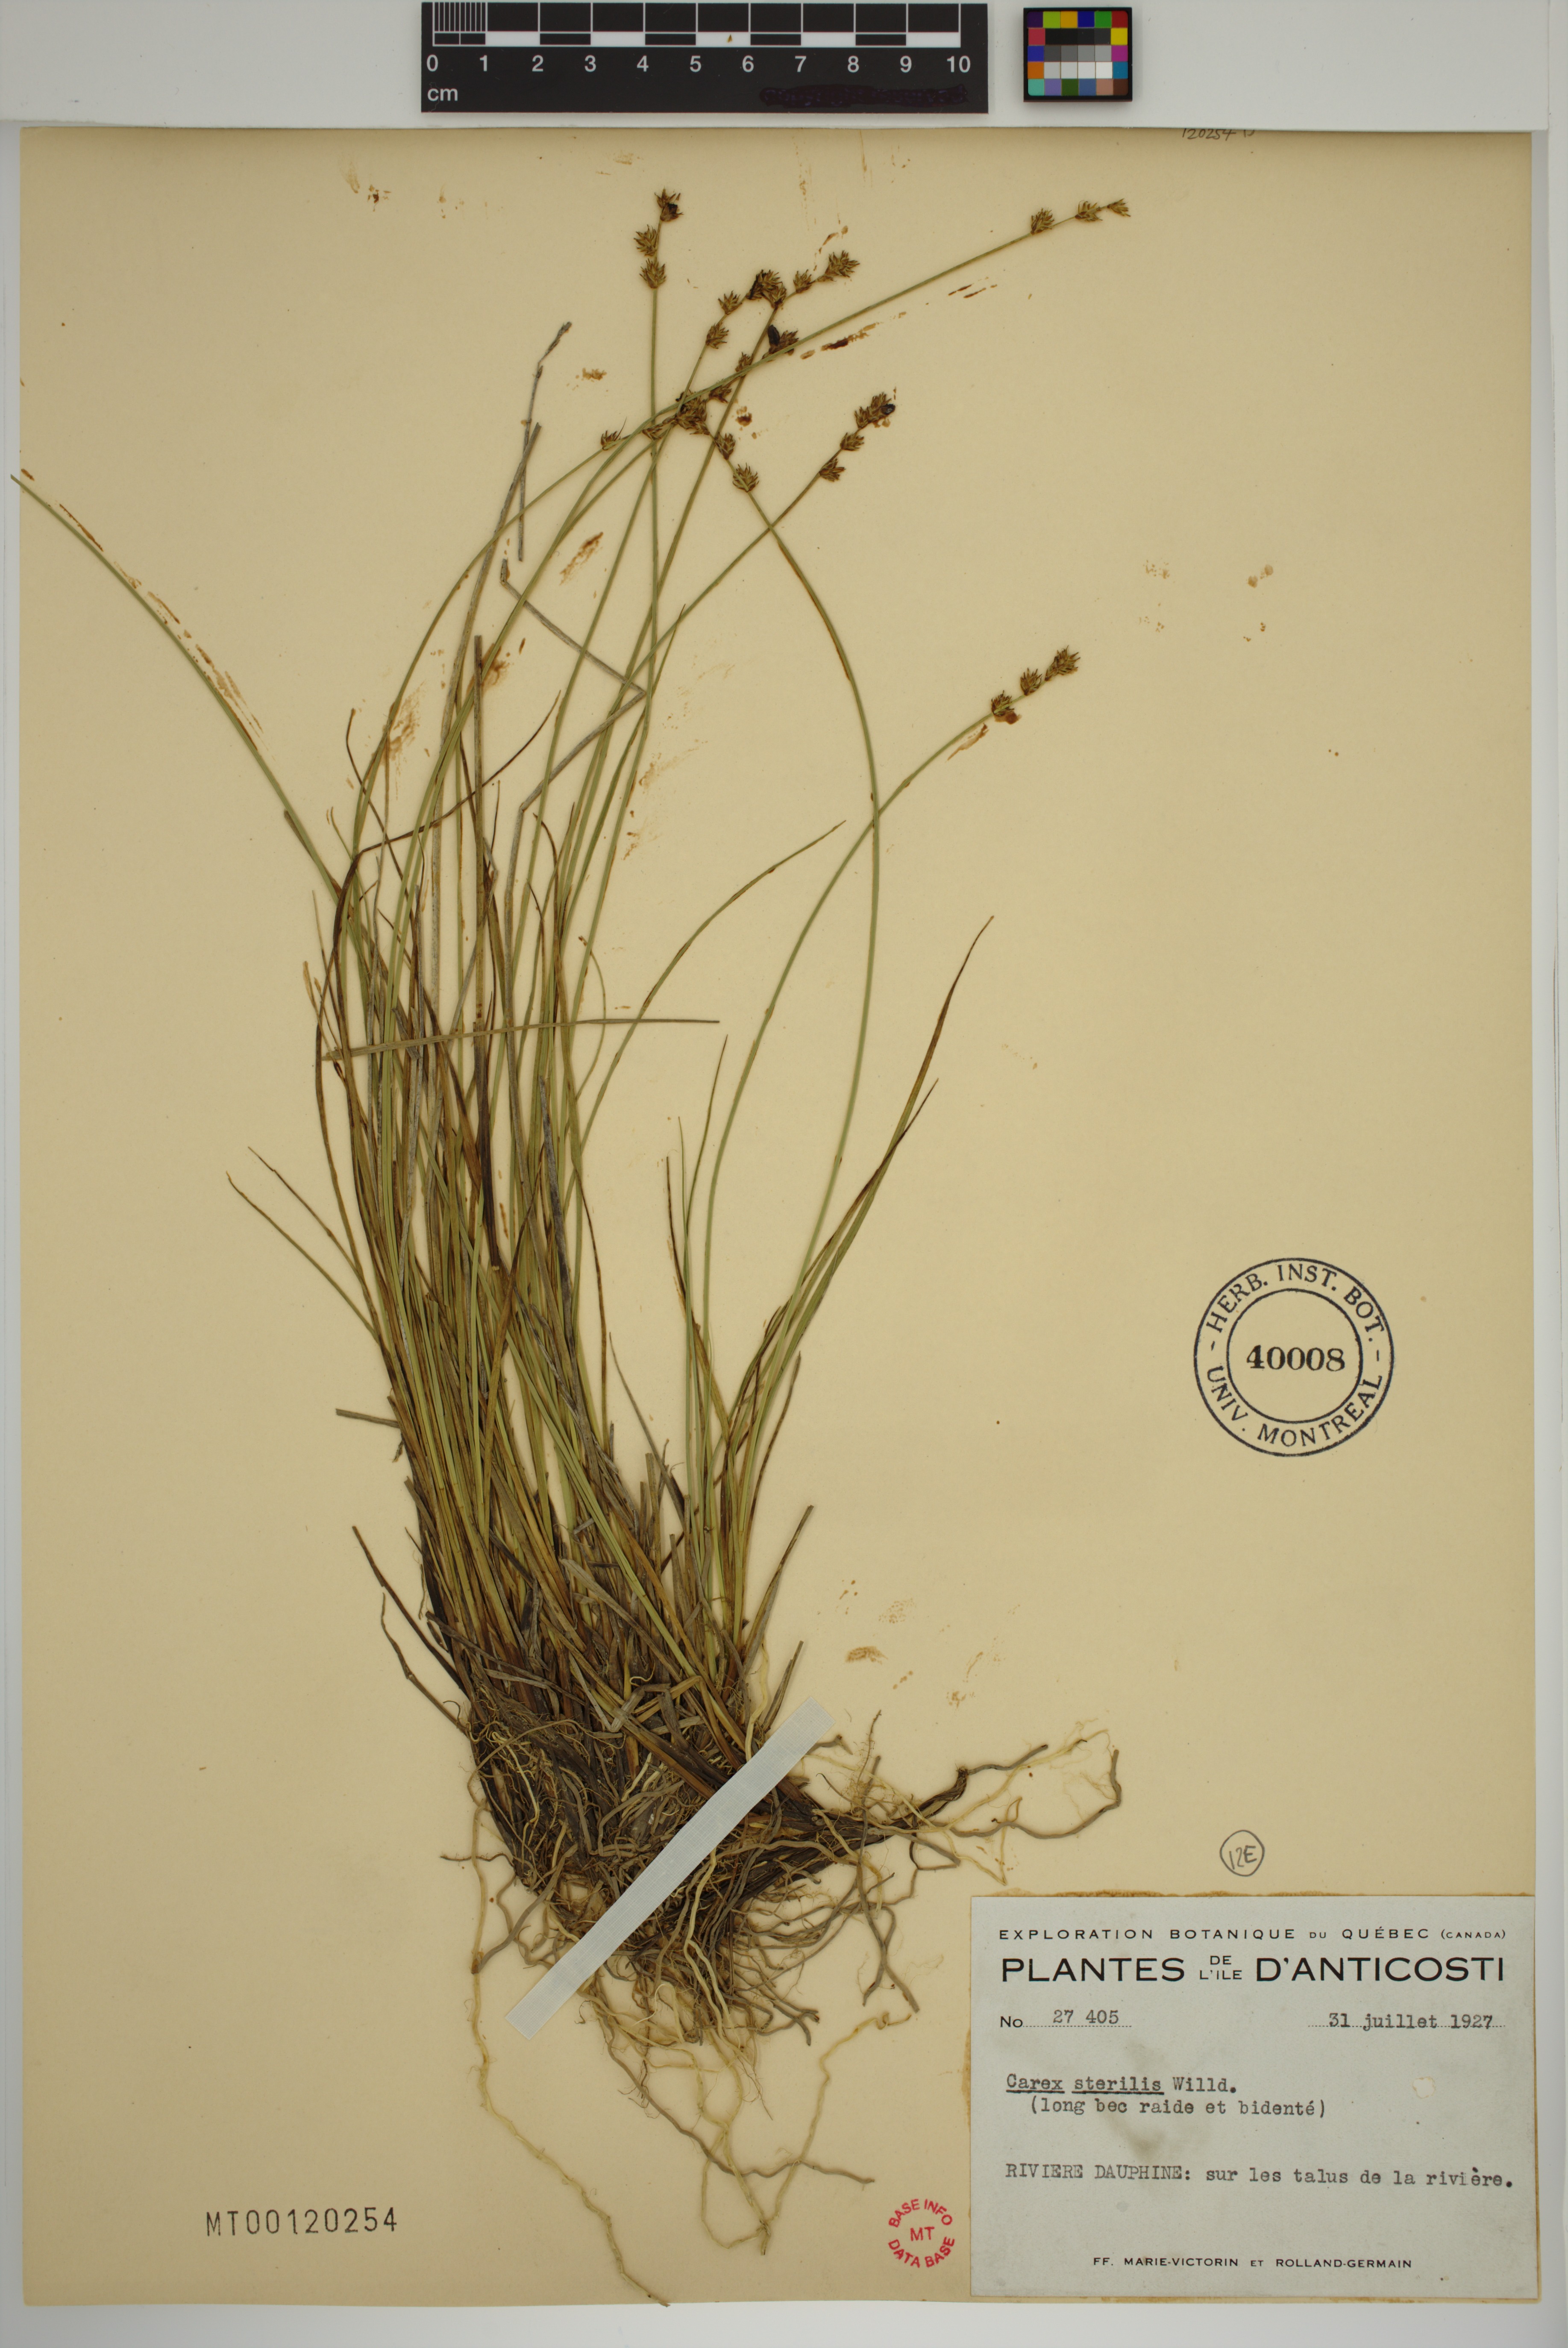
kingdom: Plantae
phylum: Tracheophyta
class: Liliopsida
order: Poales
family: Cyperaceae
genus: Carex
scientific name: Carex sterilis
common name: Dioecious sedge
